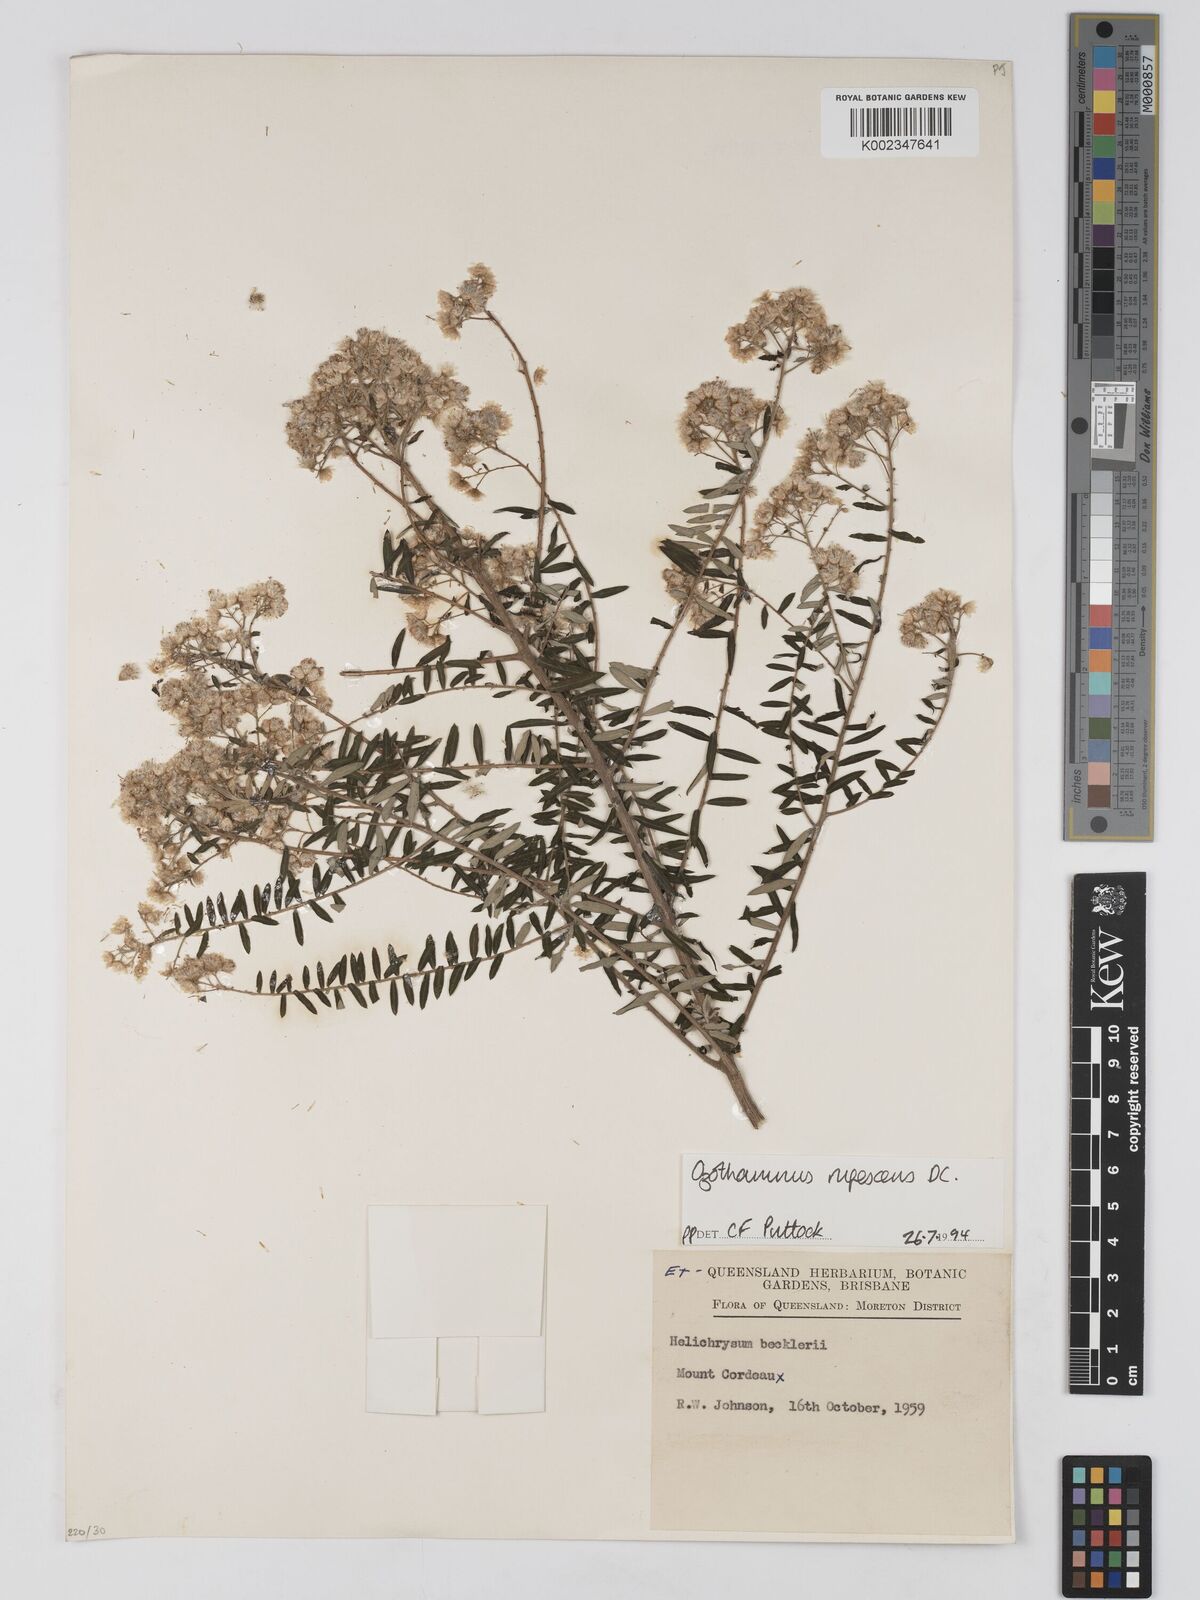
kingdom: Plantae
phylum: Tracheophyta
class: Magnoliopsida
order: Asterales
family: Asteraceae
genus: Ozothamnus
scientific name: Ozothamnus rufescens
